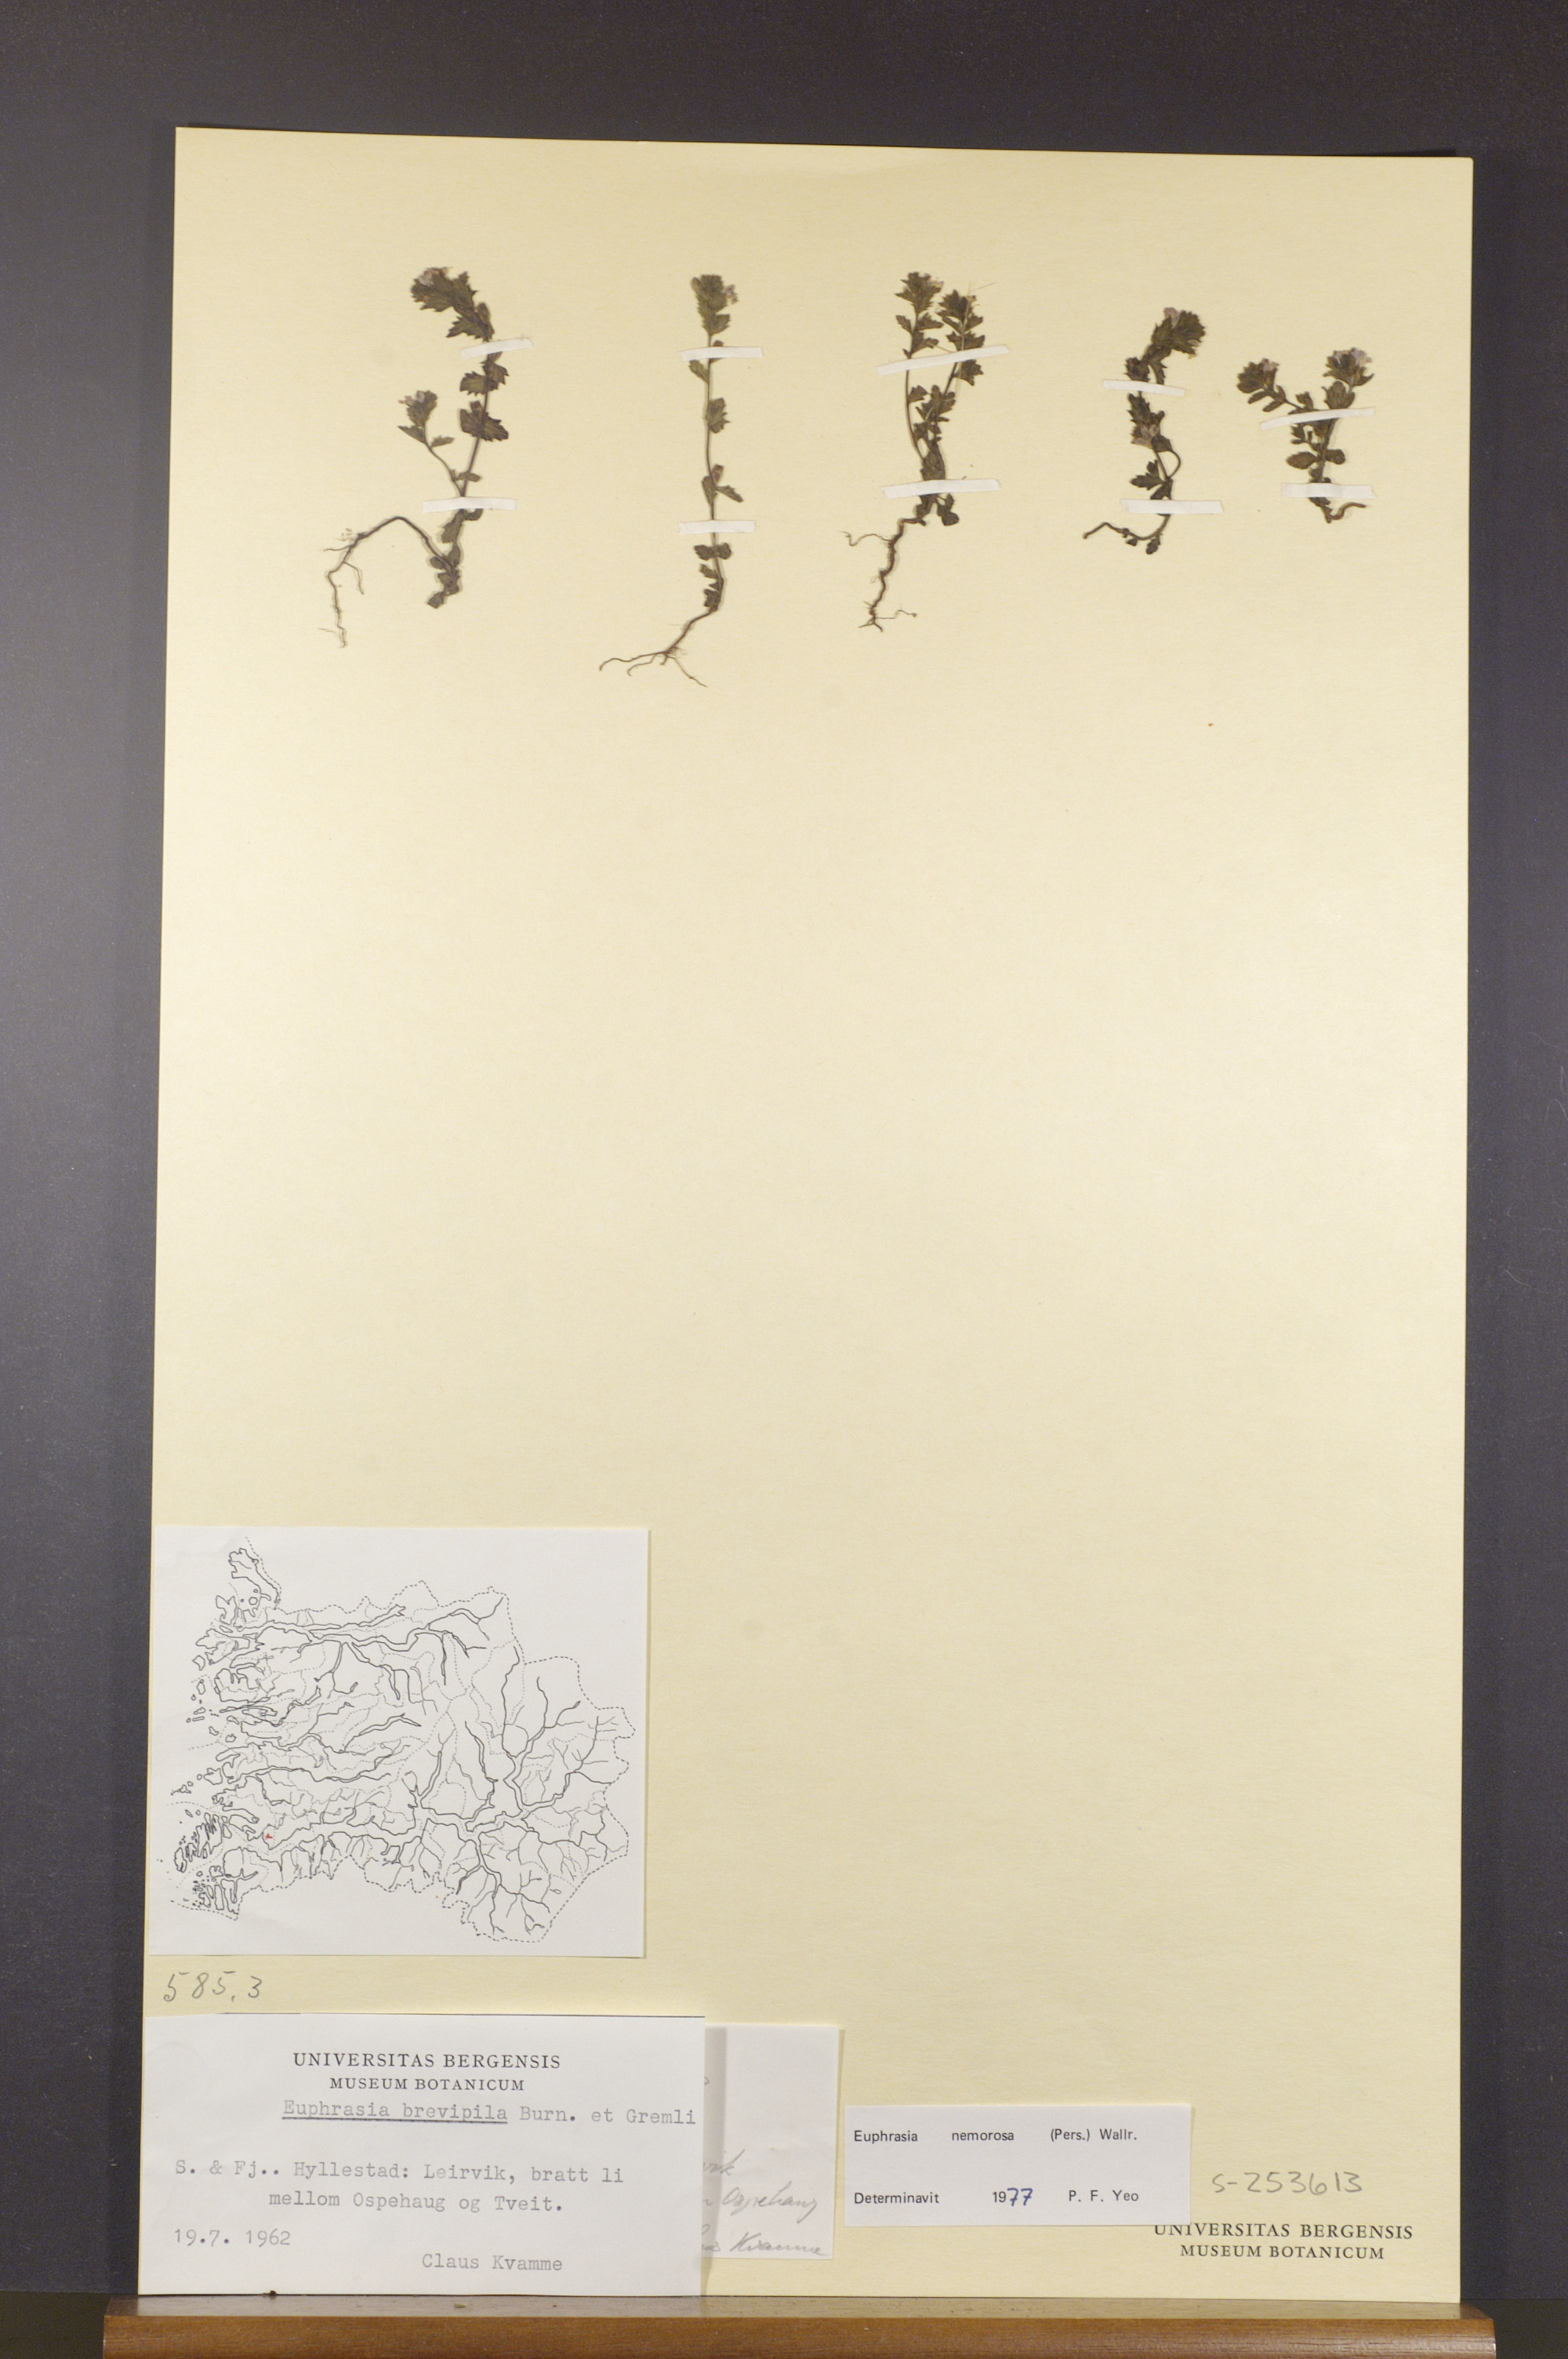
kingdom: Plantae
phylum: Tracheophyta
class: Magnoliopsida
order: Lamiales
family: Orobanchaceae
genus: Euphrasia
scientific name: Euphrasia nemorosa
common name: Common eyebright
